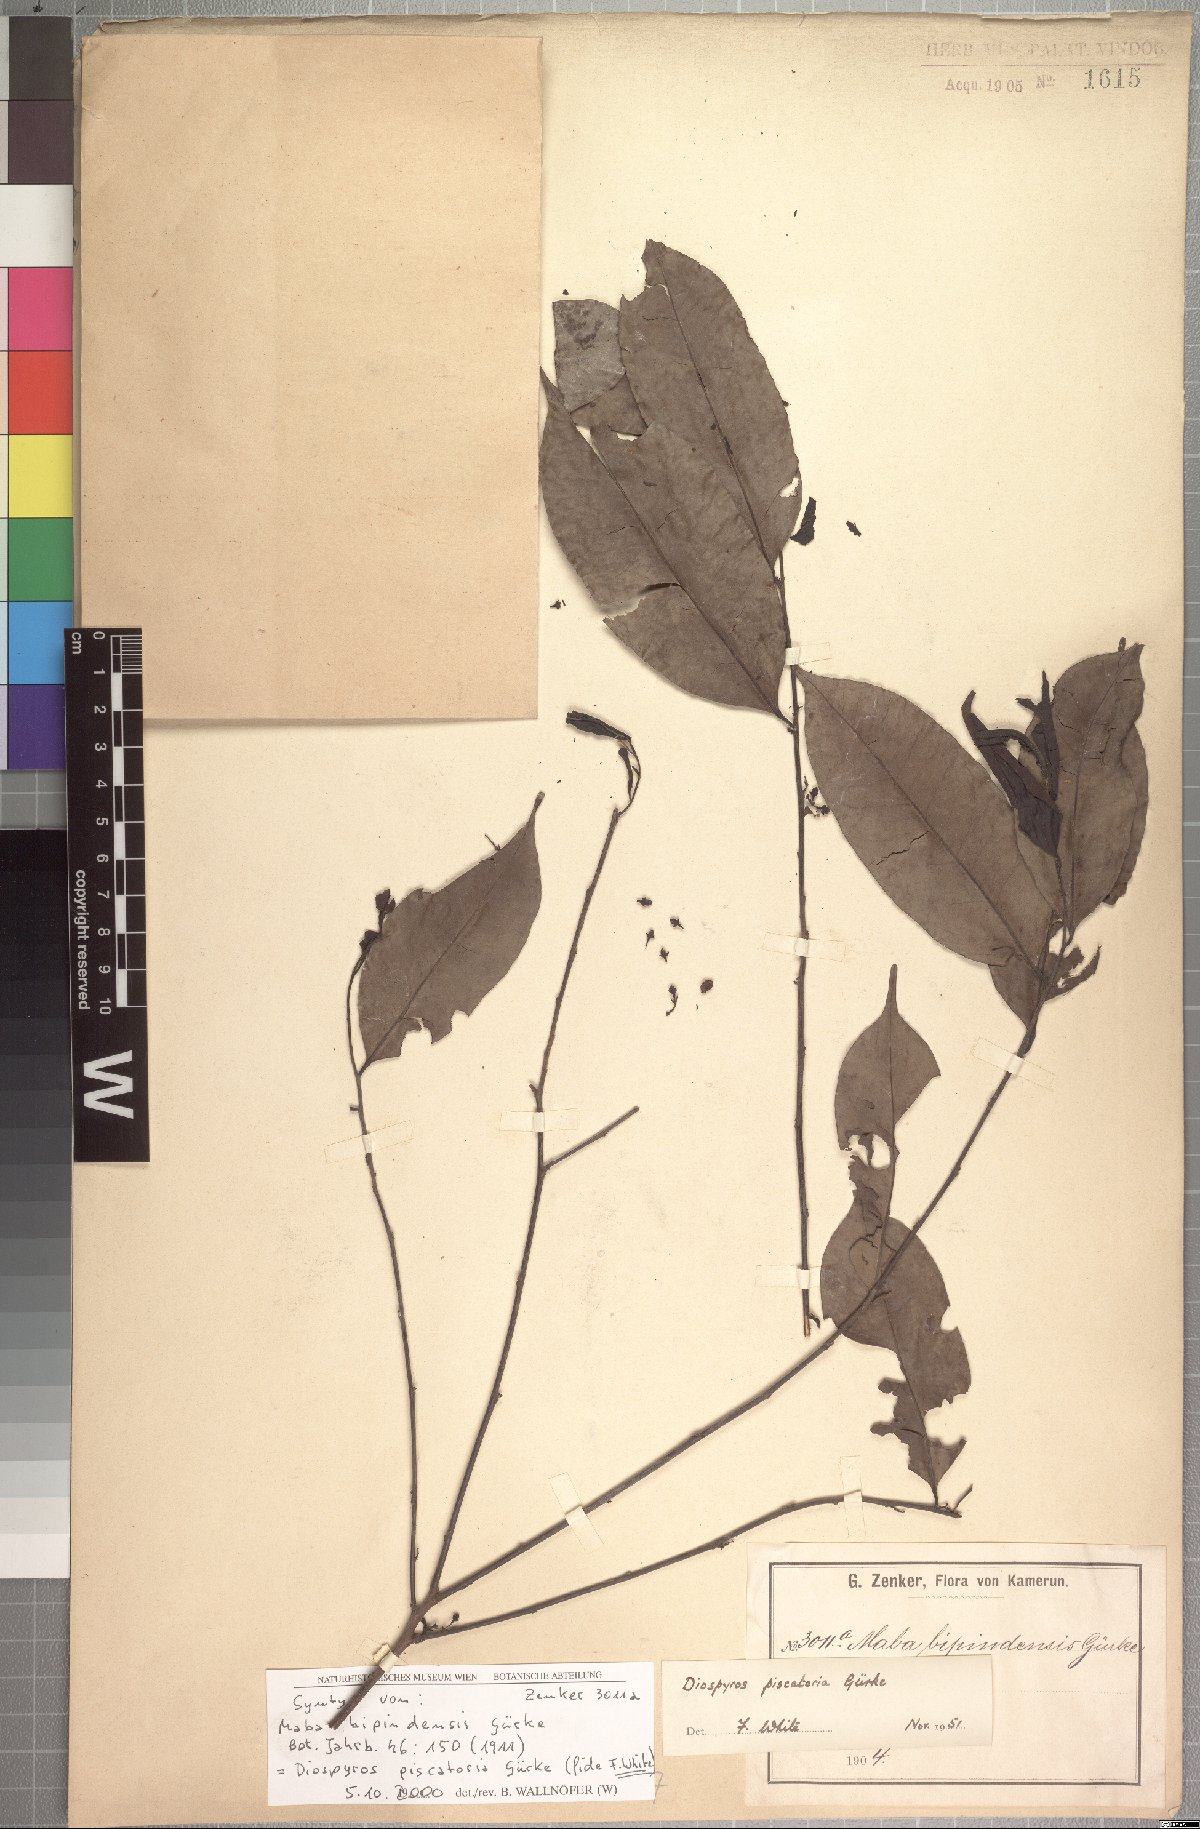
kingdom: Plantae
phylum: Tracheophyta
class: Magnoliopsida
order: Ericales
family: Ebenaceae
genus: Diospyros
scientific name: Diospyros piscatoria
